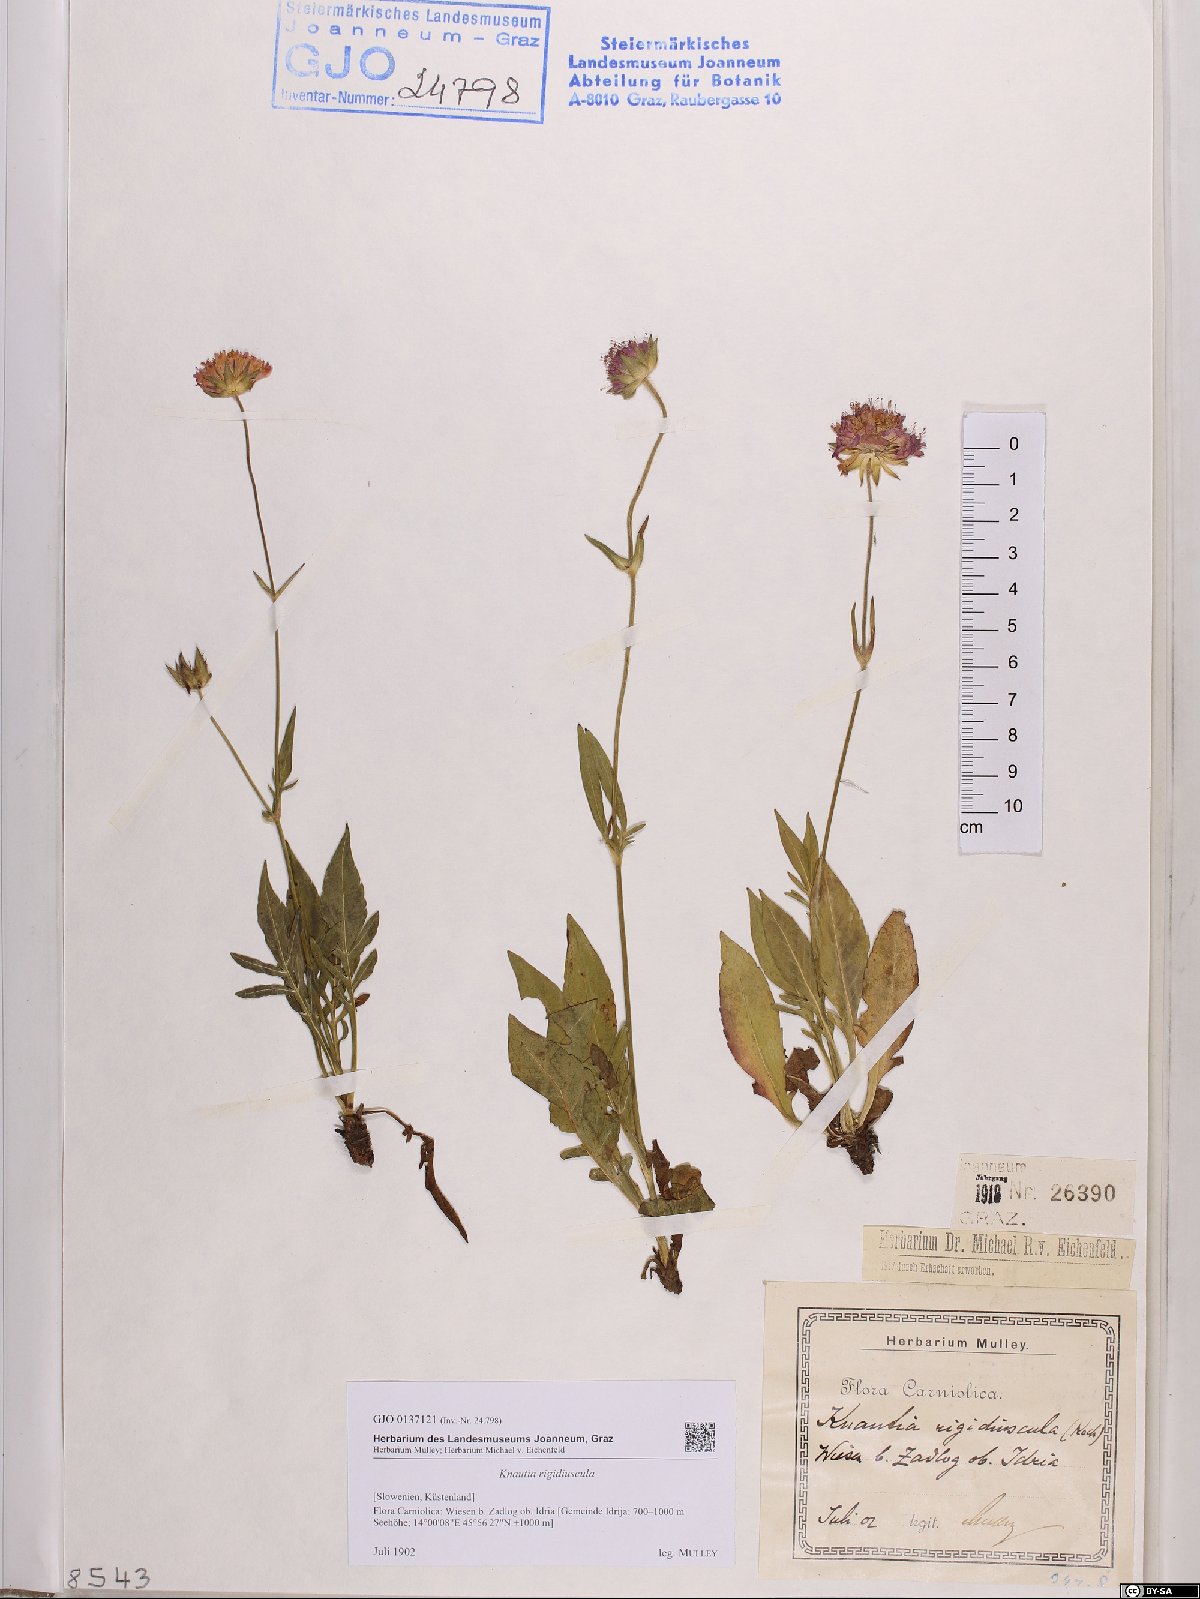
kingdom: Plantae
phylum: Tracheophyta
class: Magnoliopsida
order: Dipsacales
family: Caprifoliaceae
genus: Knautia
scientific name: Knautia fleischmannii
